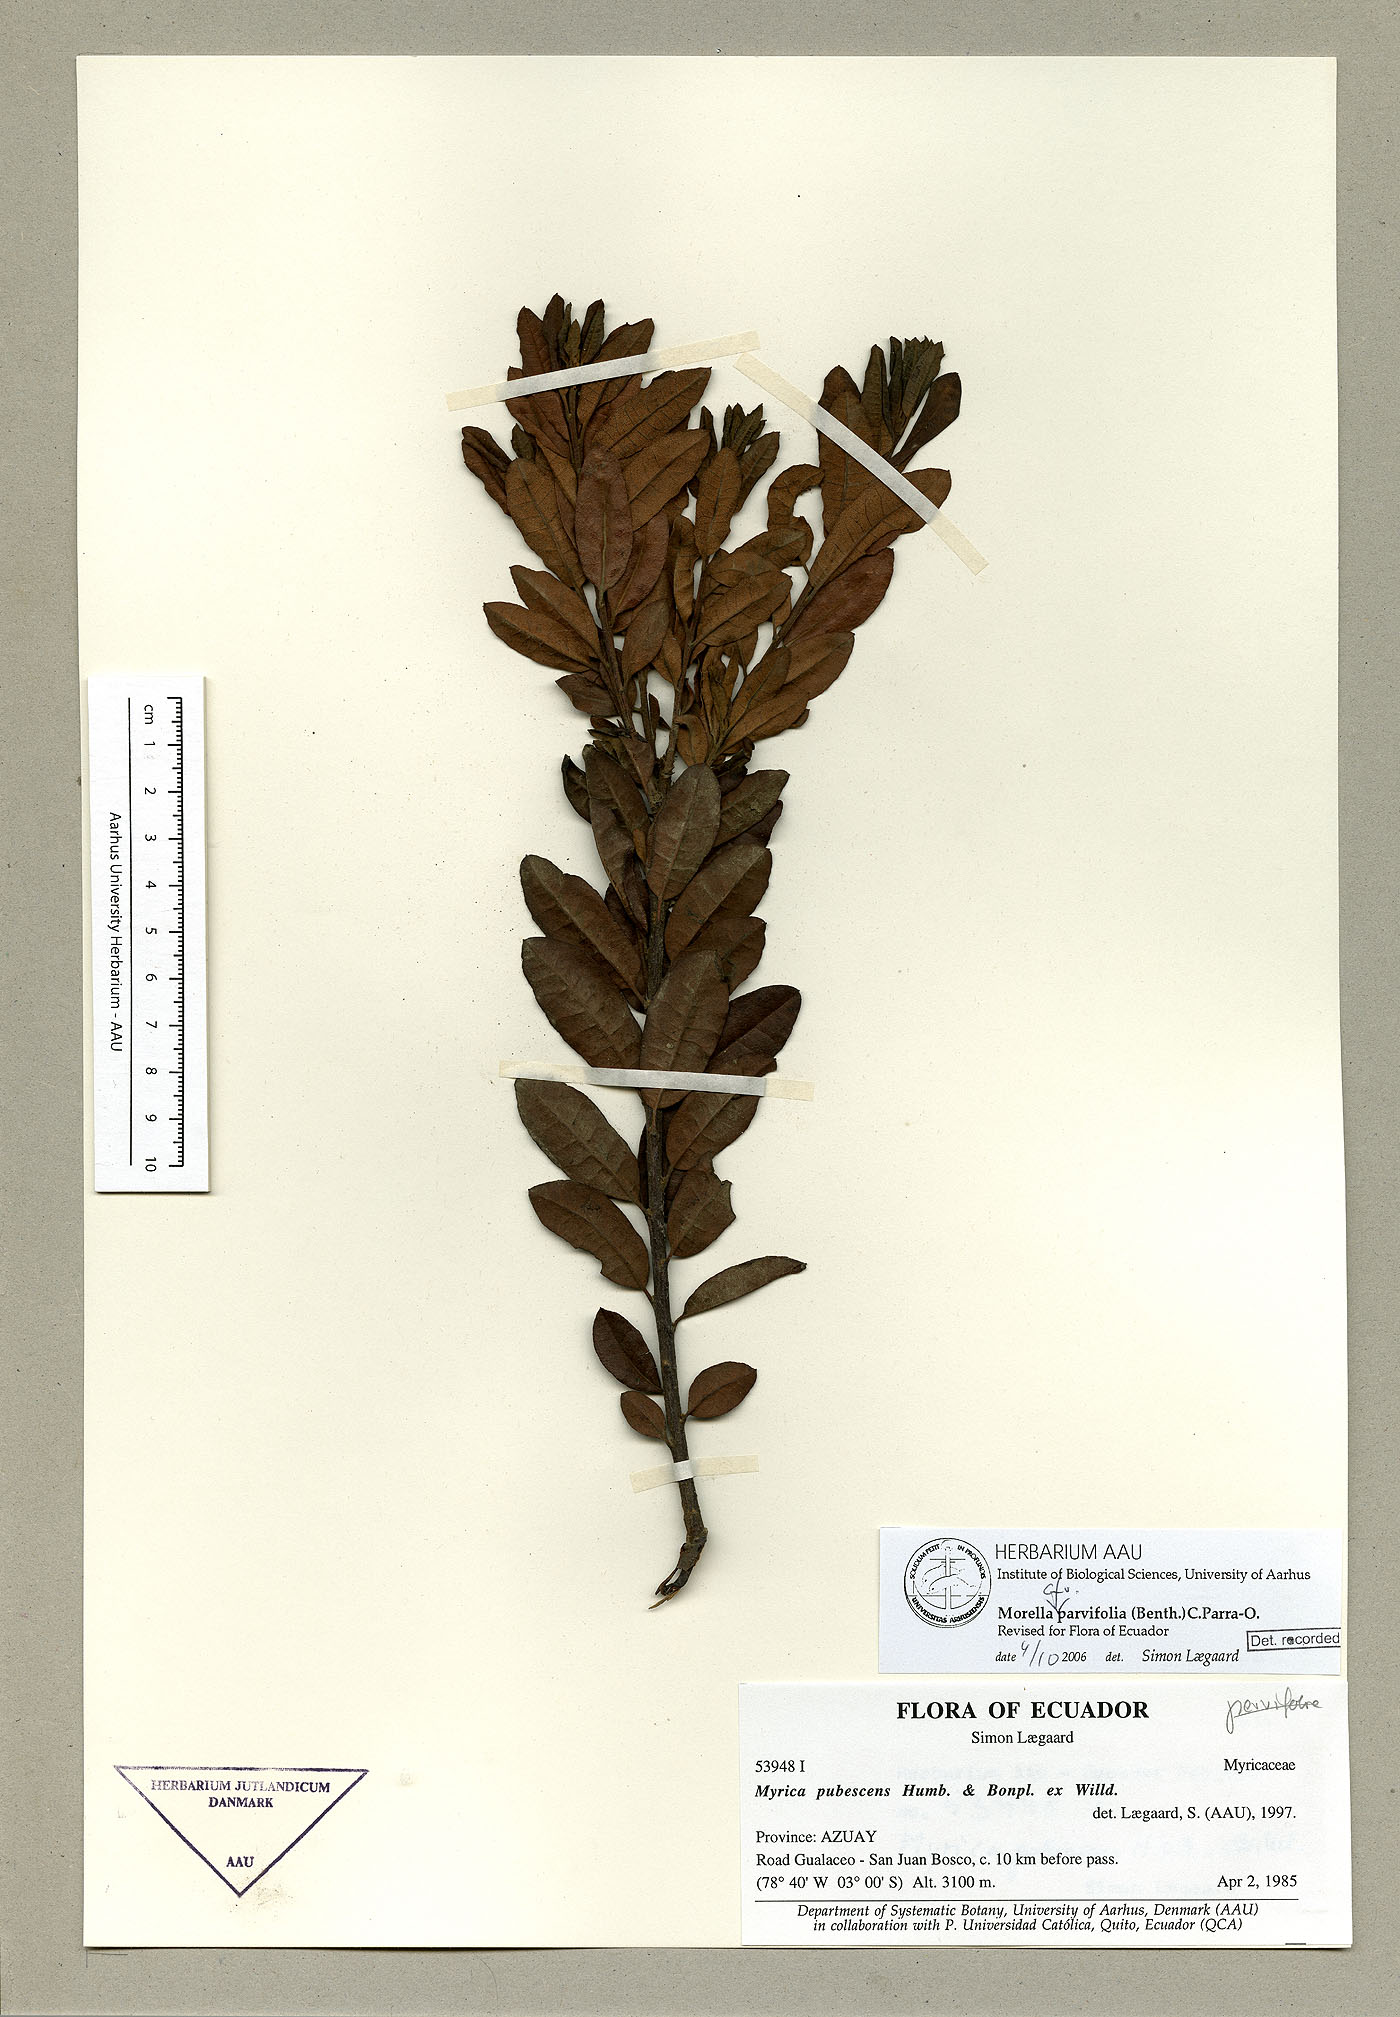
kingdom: Plantae
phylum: Tracheophyta
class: Magnoliopsida
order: Fagales
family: Myricaceae
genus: Morella
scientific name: Morella parvifolia
